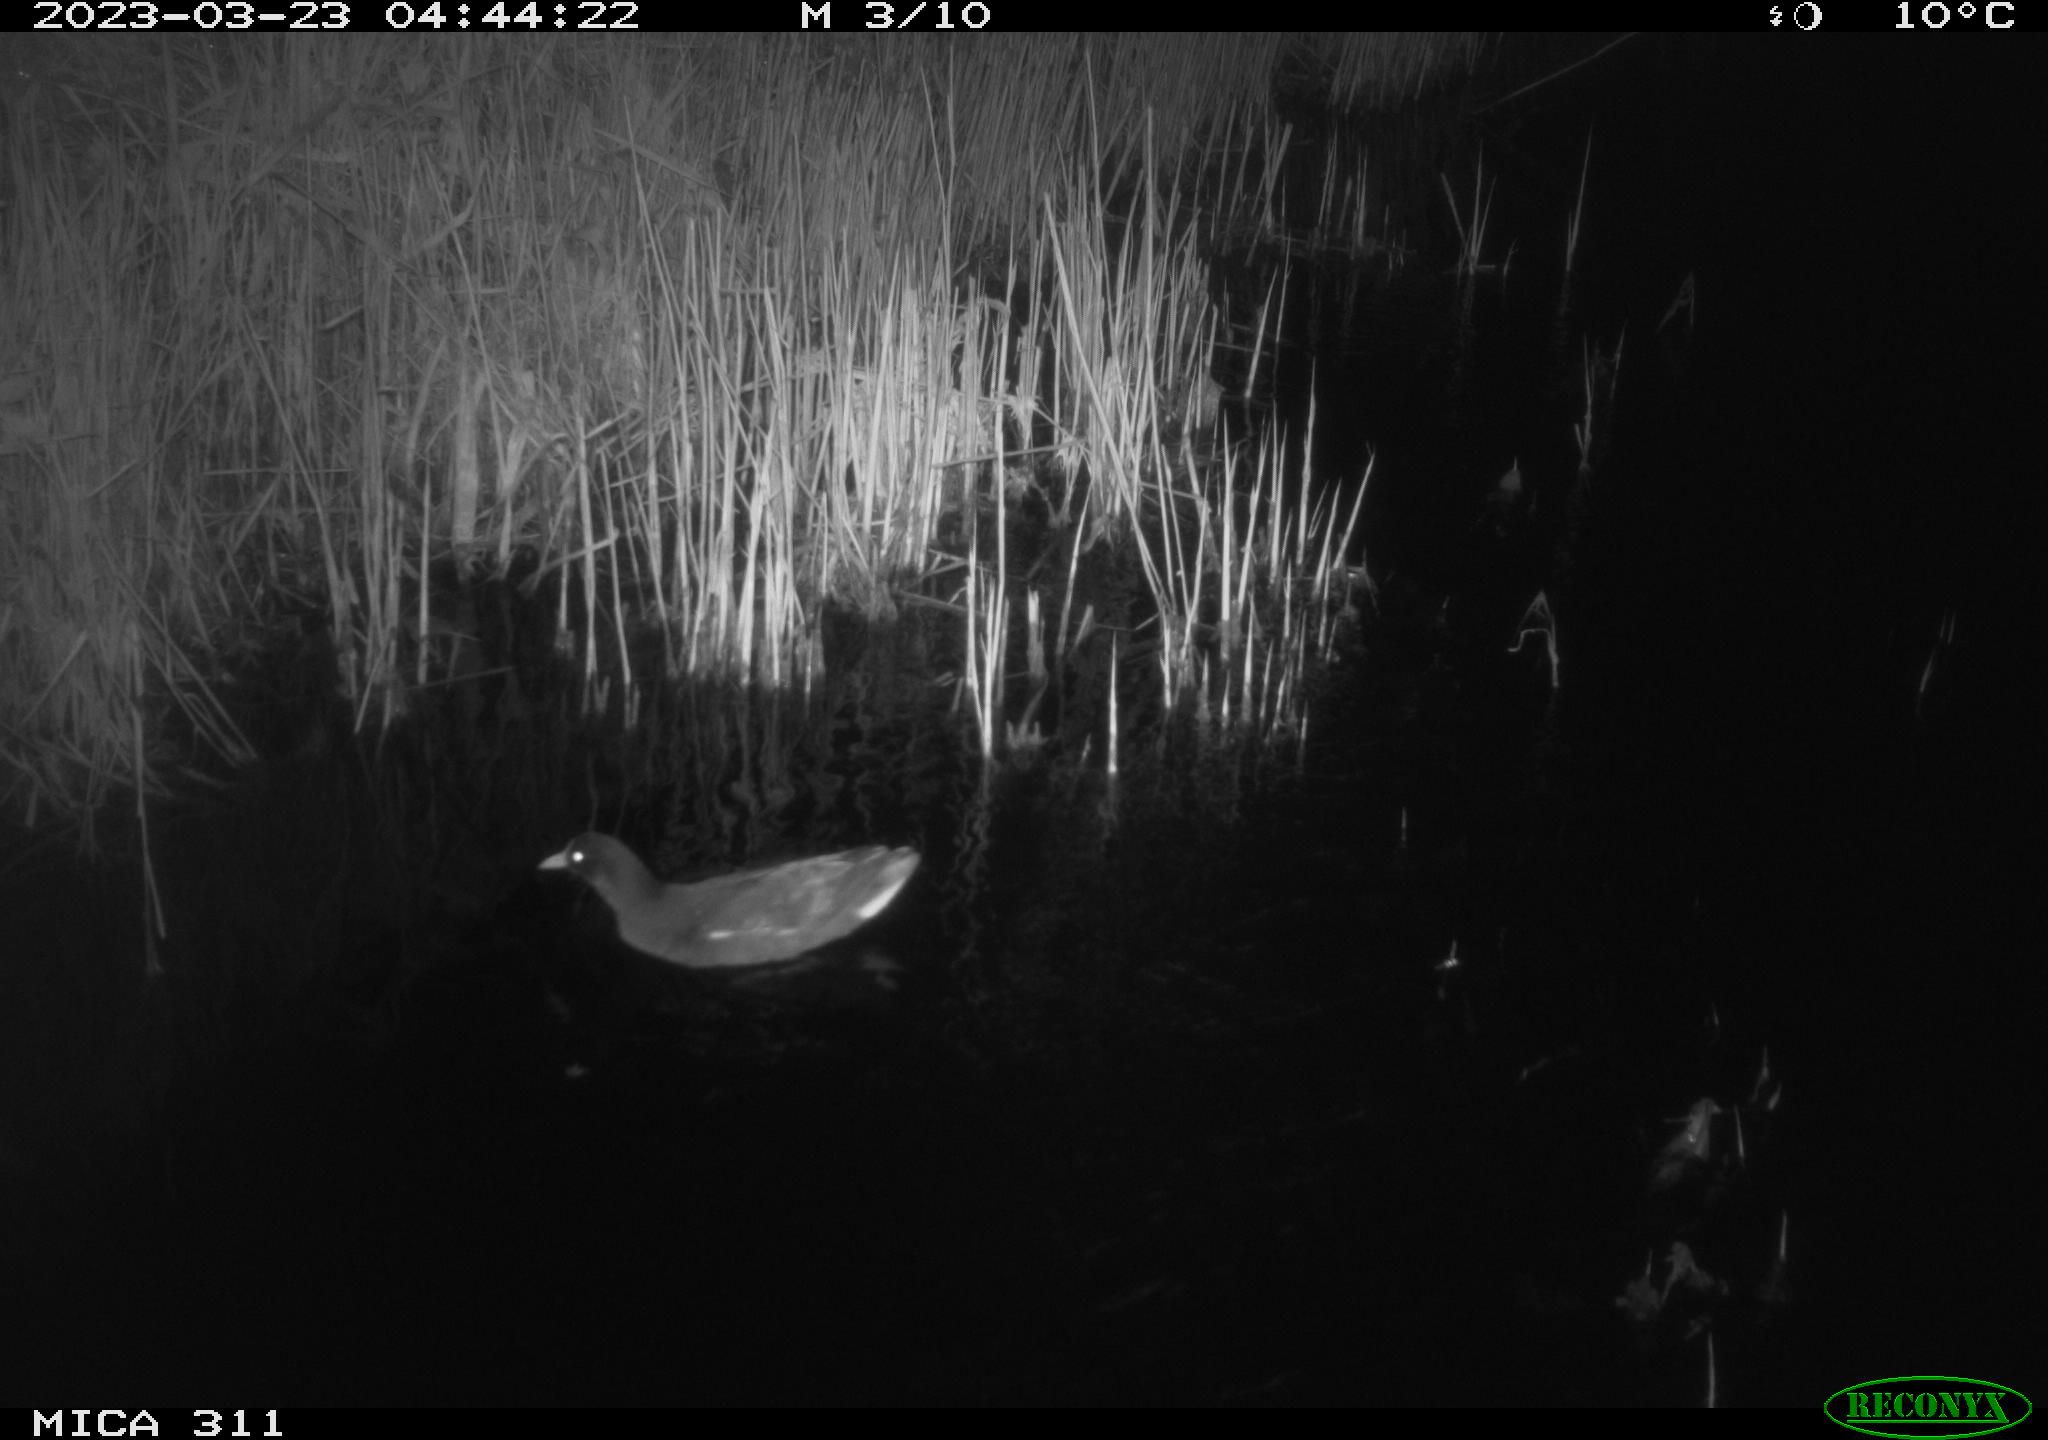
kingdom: Animalia
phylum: Chordata
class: Aves
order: Gruiformes
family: Rallidae
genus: Gallinula
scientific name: Gallinula chloropus
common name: Common moorhen
